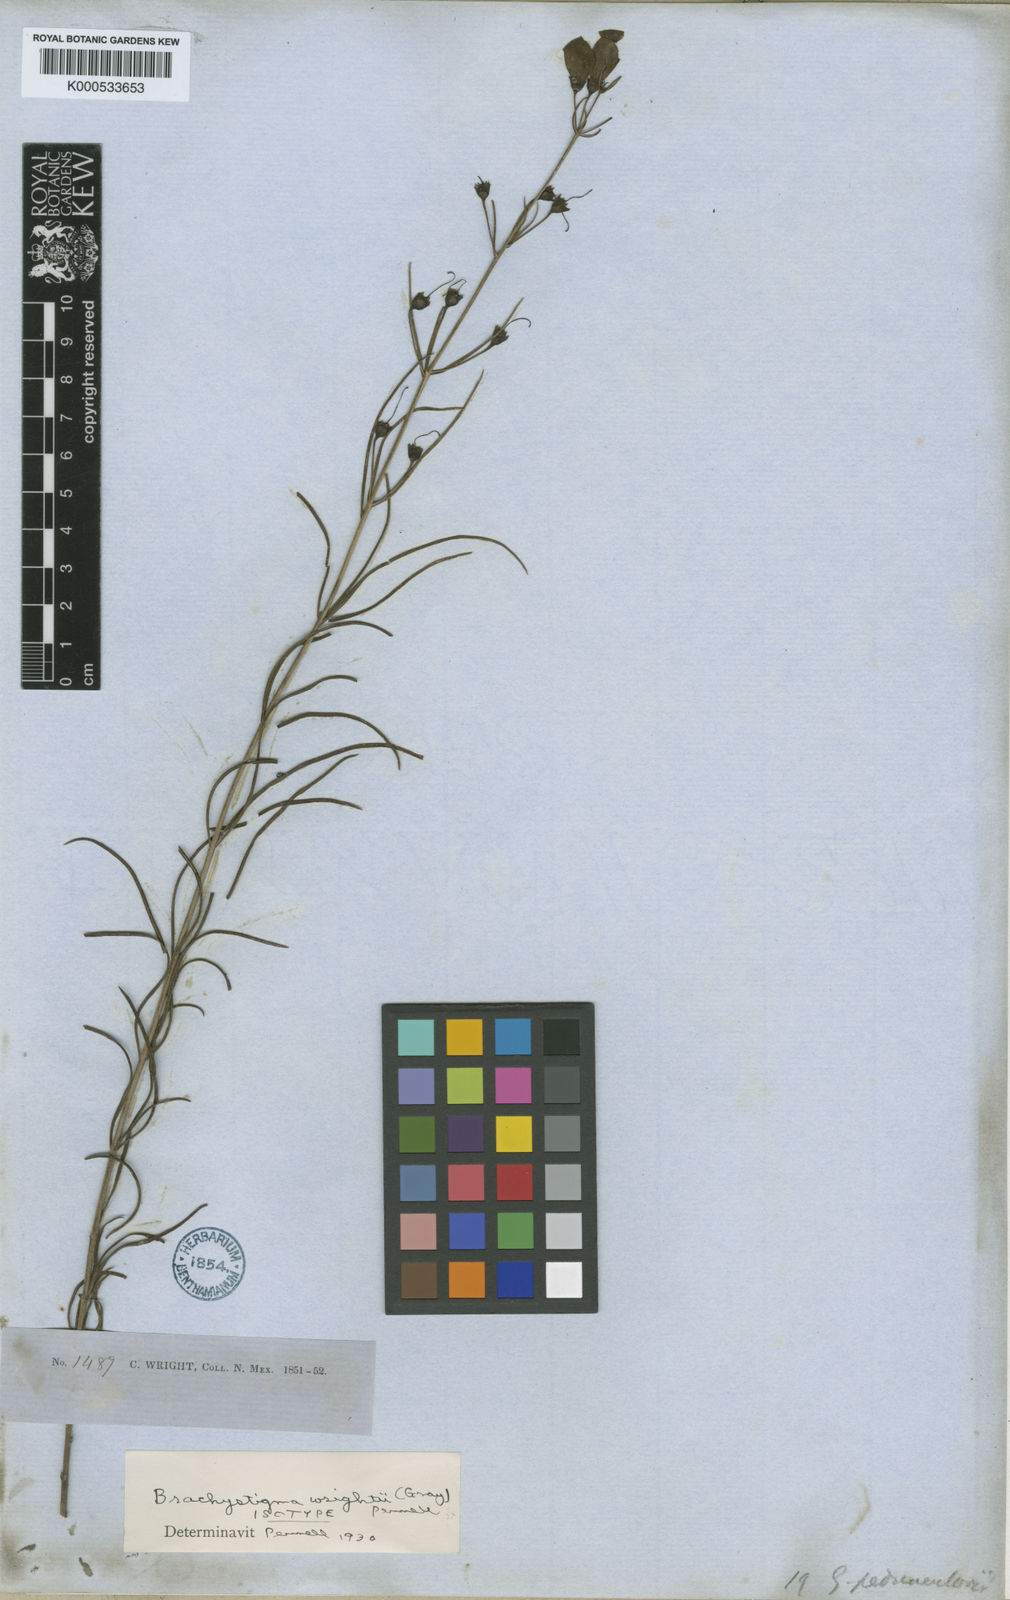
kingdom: Plantae
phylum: Tracheophyta
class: Magnoliopsida
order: Lamiales
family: Orobanchaceae
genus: Brachystigma
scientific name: Brachystigma wrightii
